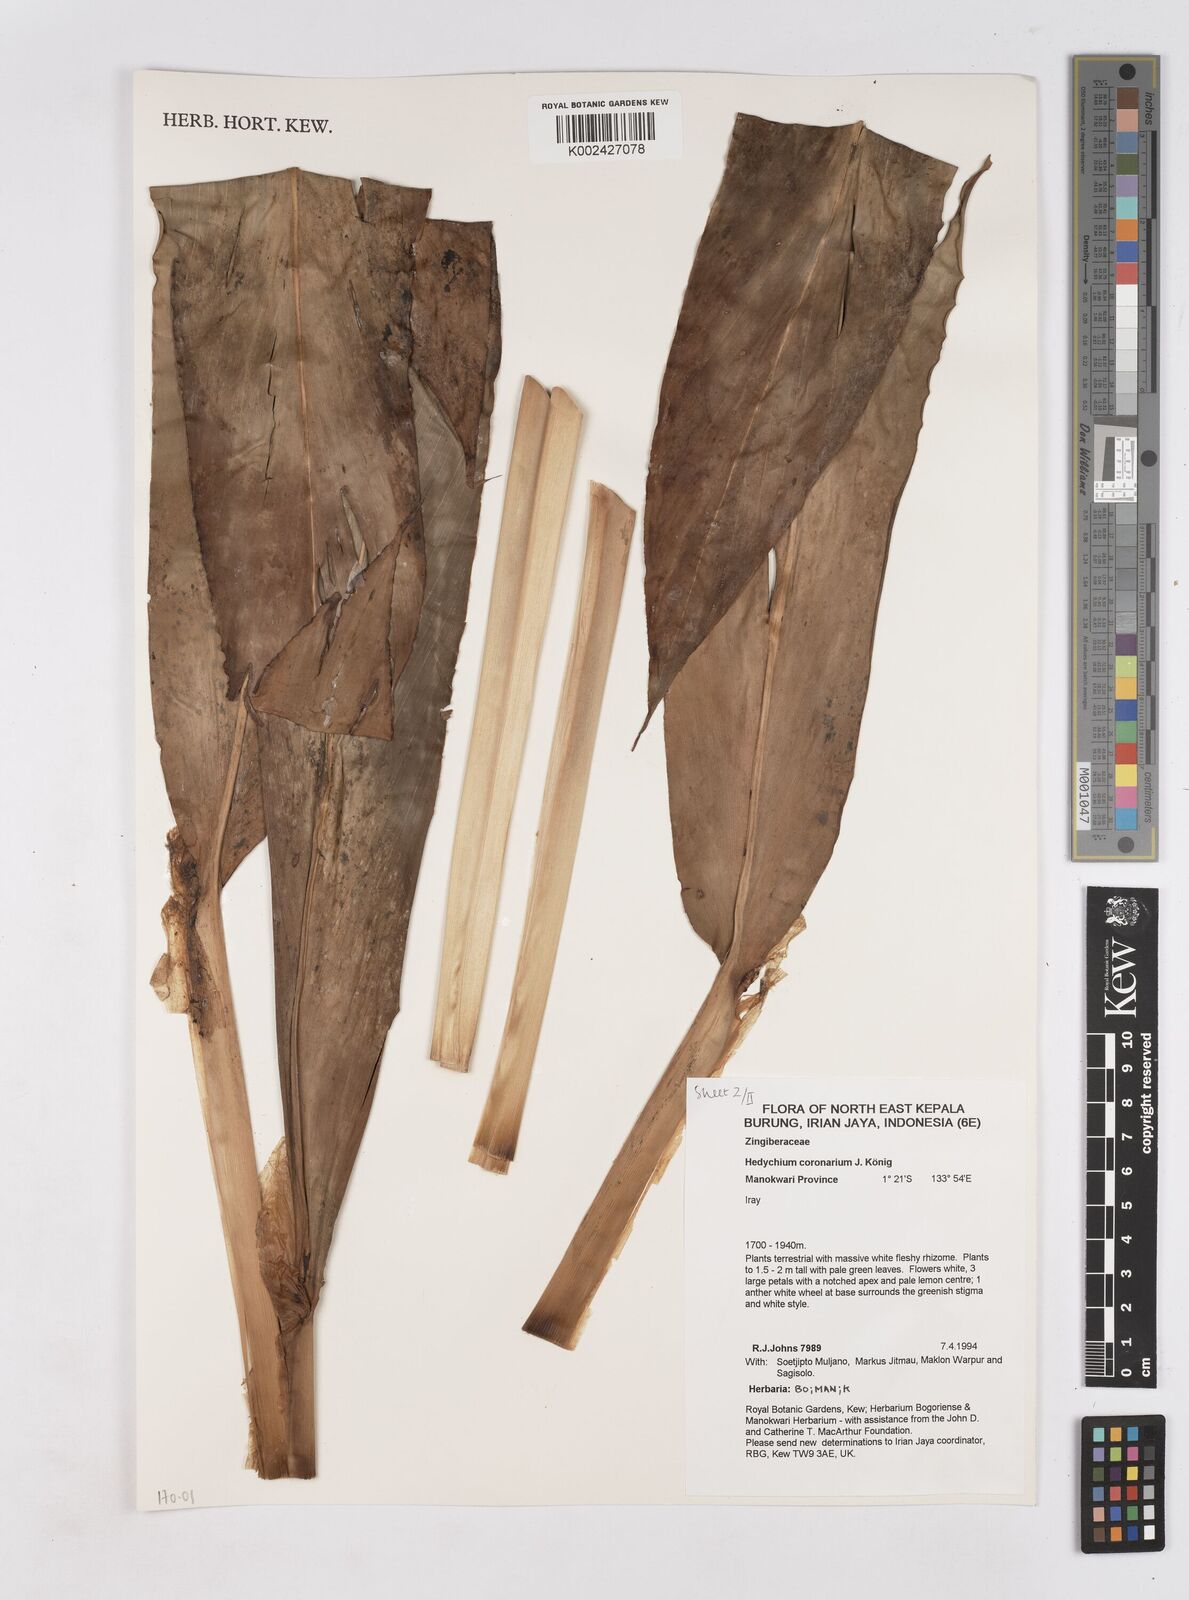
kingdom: Plantae
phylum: Tracheophyta
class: Liliopsida
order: Zingiberales
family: Zingiberaceae
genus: Hedychium
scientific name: Hedychium coronarium
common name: White garland-lily
